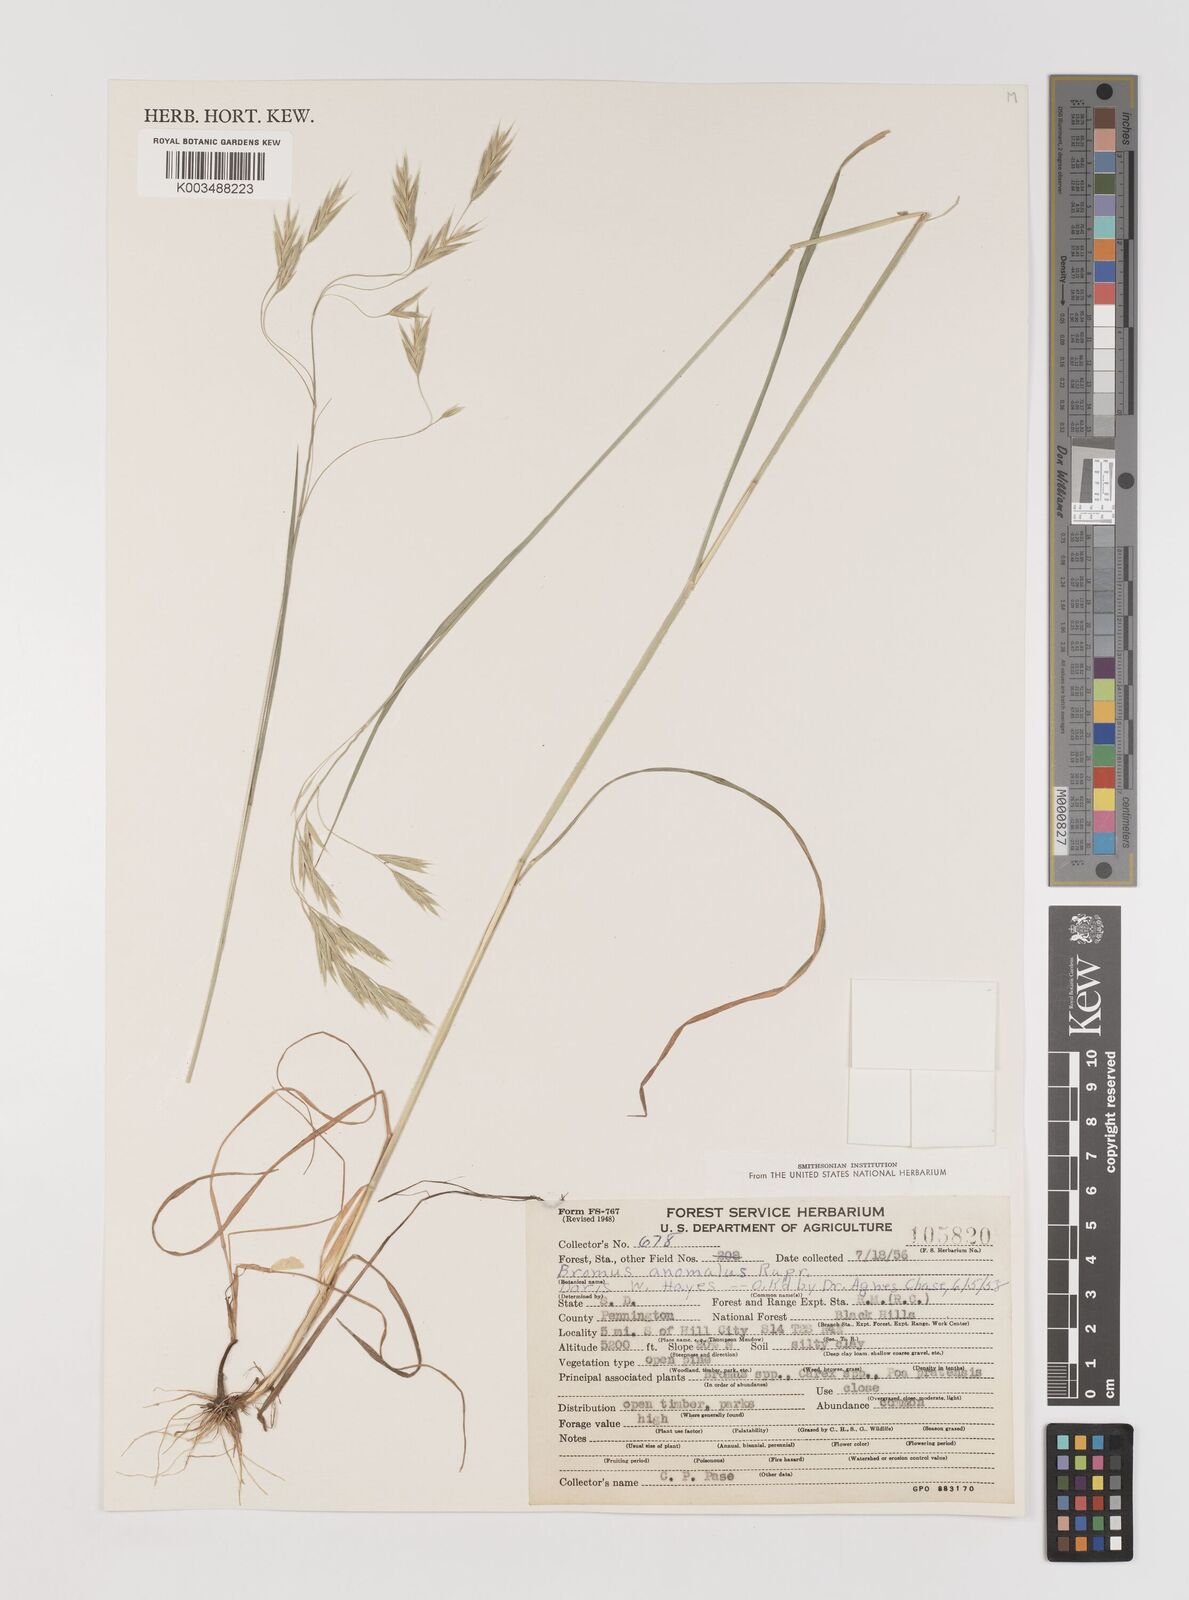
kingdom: Plantae
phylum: Tracheophyta
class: Liliopsida
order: Poales
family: Poaceae
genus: Bromus
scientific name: Bromus anomalus
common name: Nodding brome
